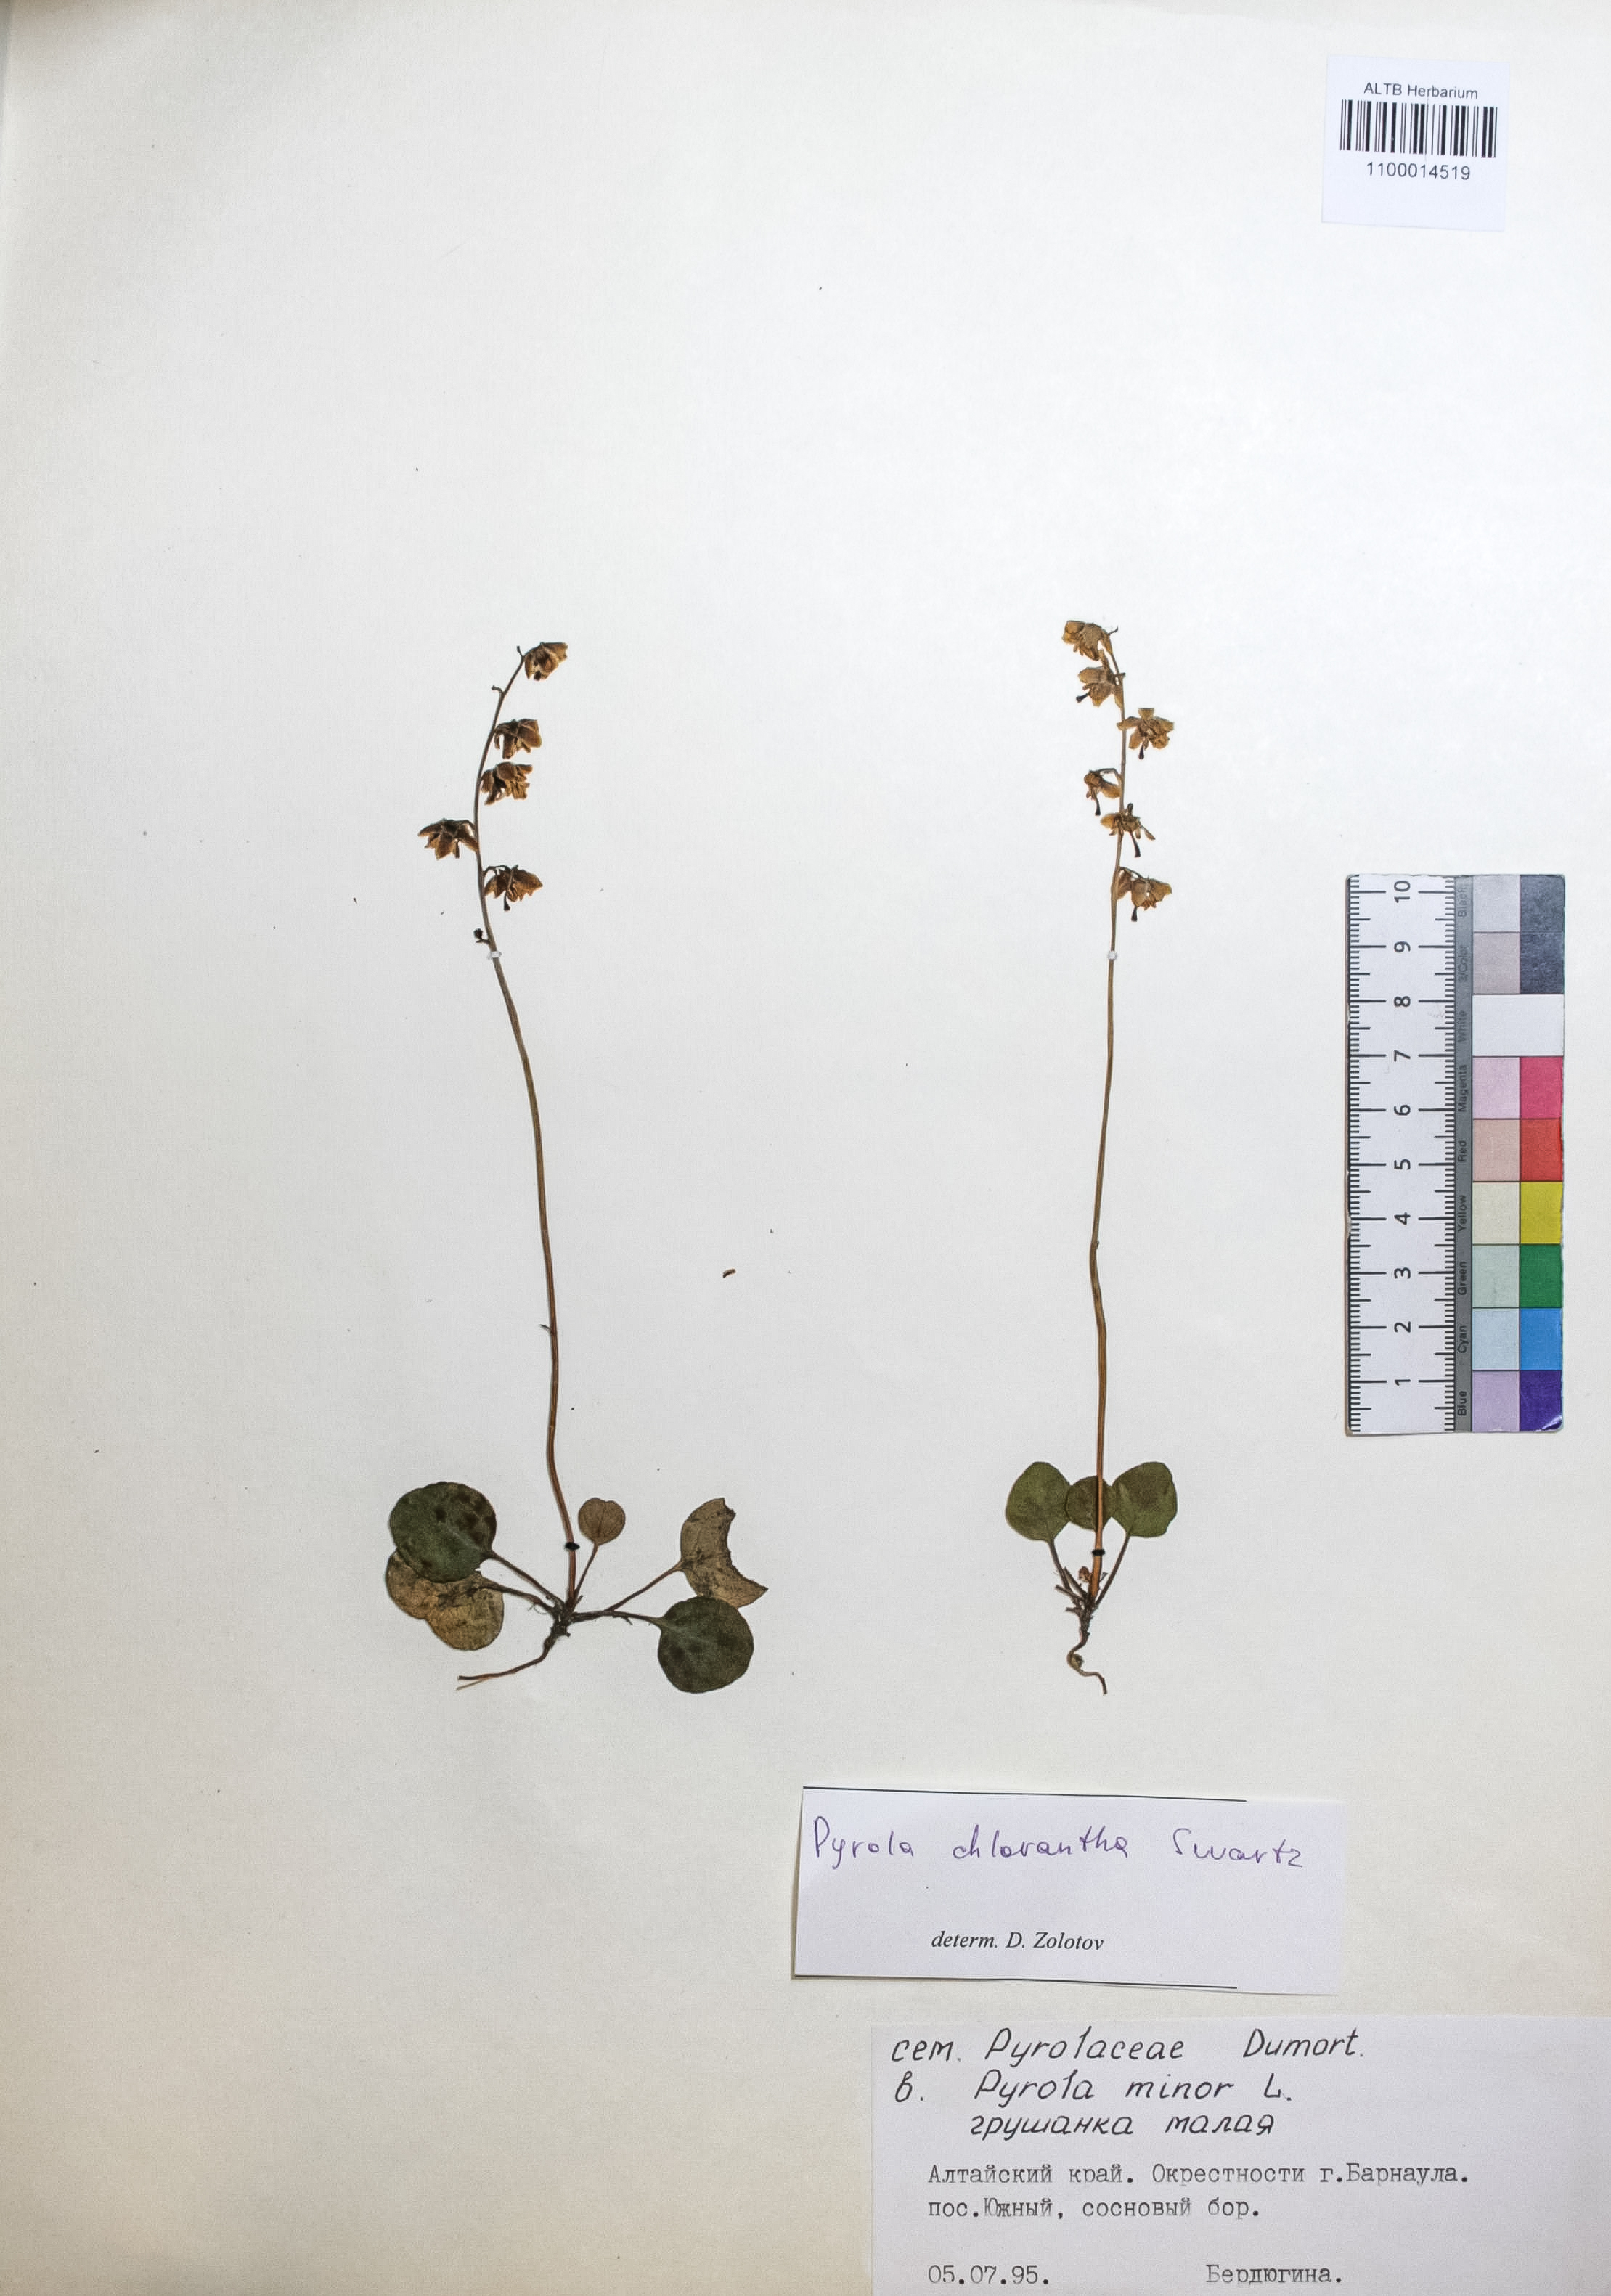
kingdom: Plantae
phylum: Tracheophyta
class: Magnoliopsida
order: Ericales
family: Ericaceae
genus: Pyrola
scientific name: Pyrola chlorantha
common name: Green wintergreen
